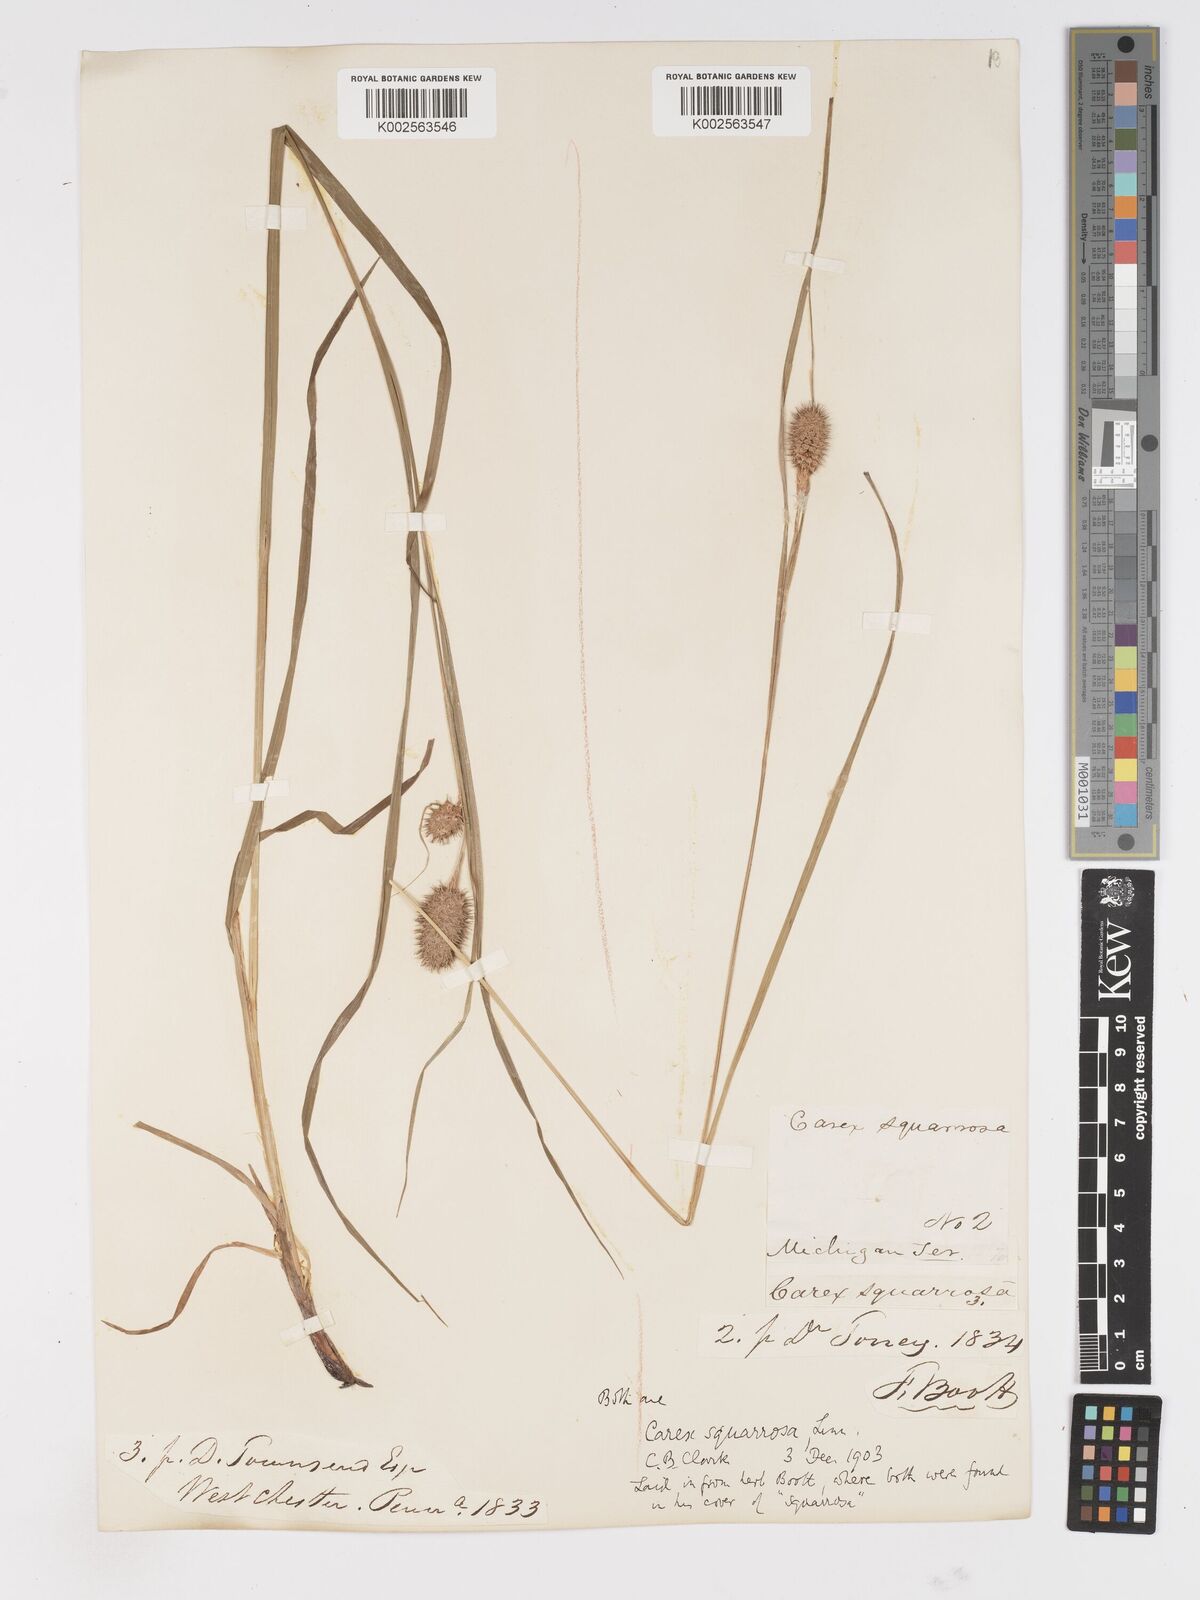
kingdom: Plantae
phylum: Tracheophyta
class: Liliopsida
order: Poales
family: Cyperaceae
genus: Carex
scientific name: Carex squarrosa
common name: Narrow-leaved cattail sedge
